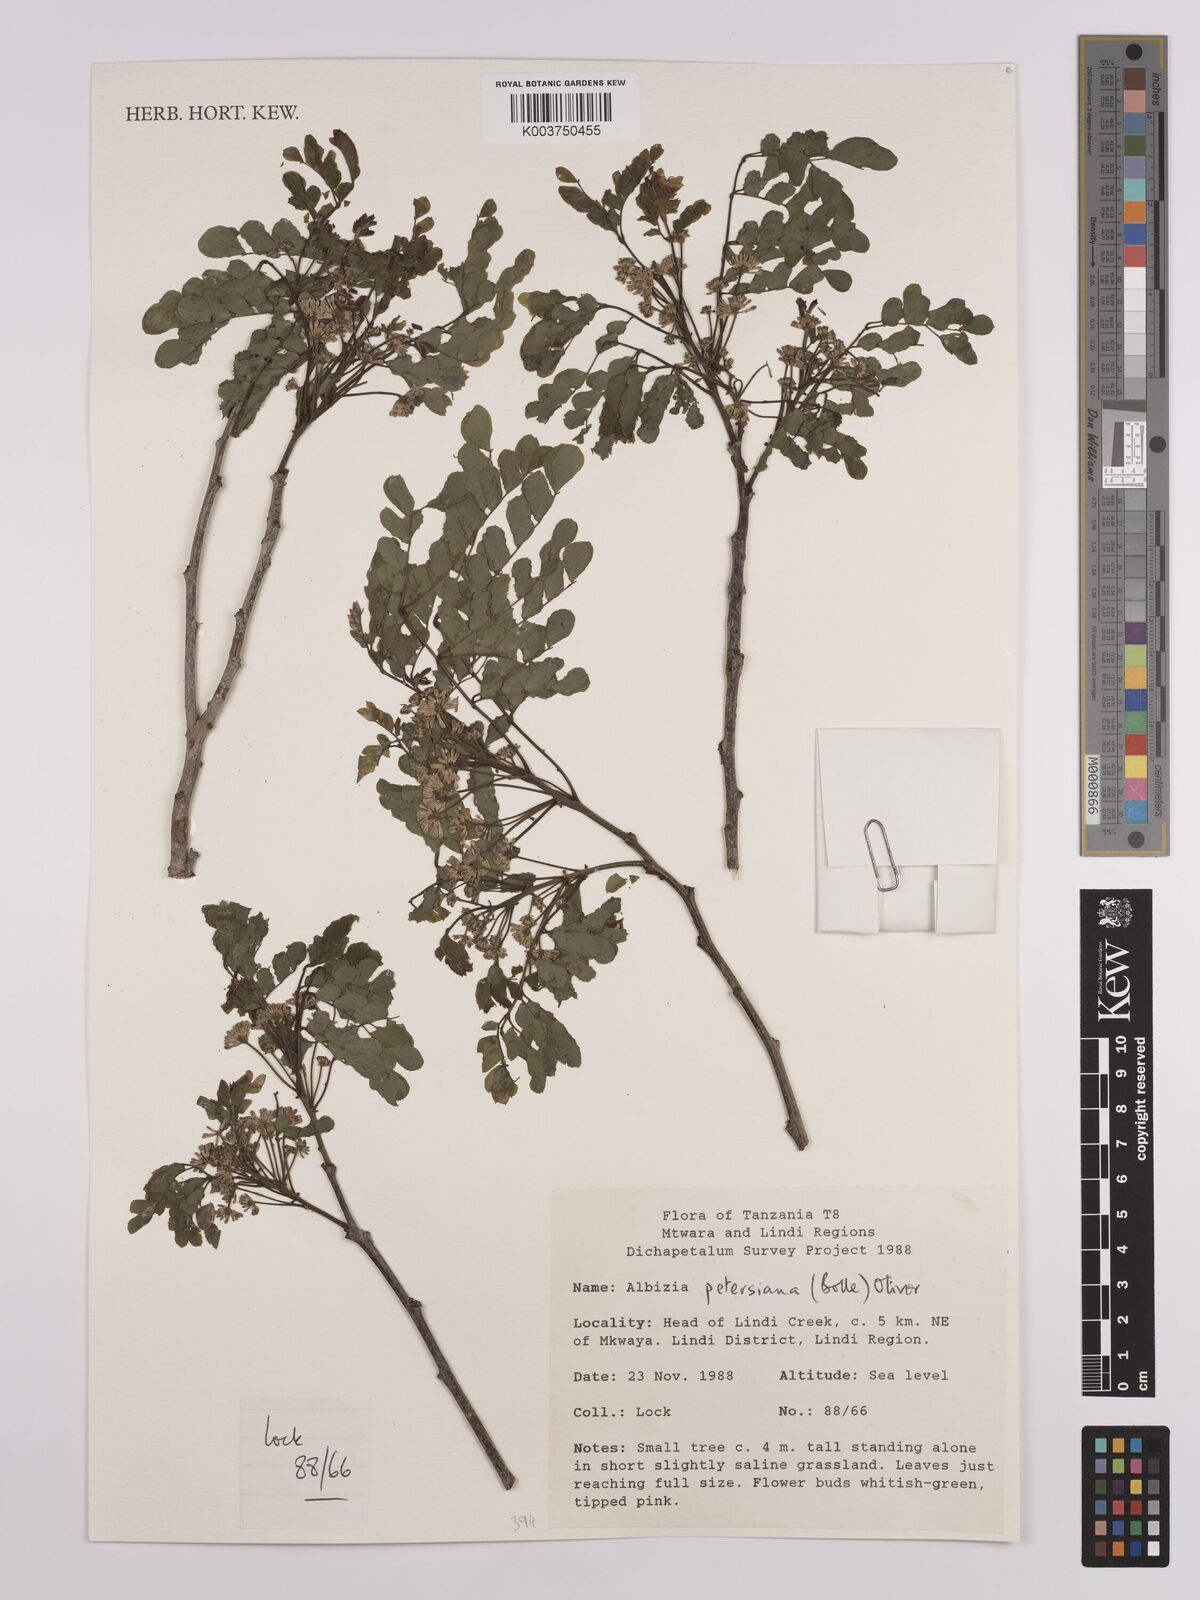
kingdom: Plantae
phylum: Tracheophyta
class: Magnoliopsida
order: Fabales
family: Fabaceae
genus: Albizia
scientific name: Albizia petersiana
